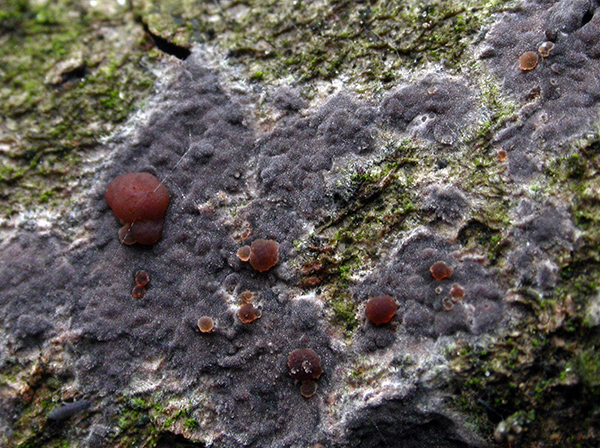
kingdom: Fungi
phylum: Basidiomycota
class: Tremellomycetes
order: Tremellales
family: Tremellaceae
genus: Tremella
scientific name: Tremella versicolor
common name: voksskind-bævresvamp
